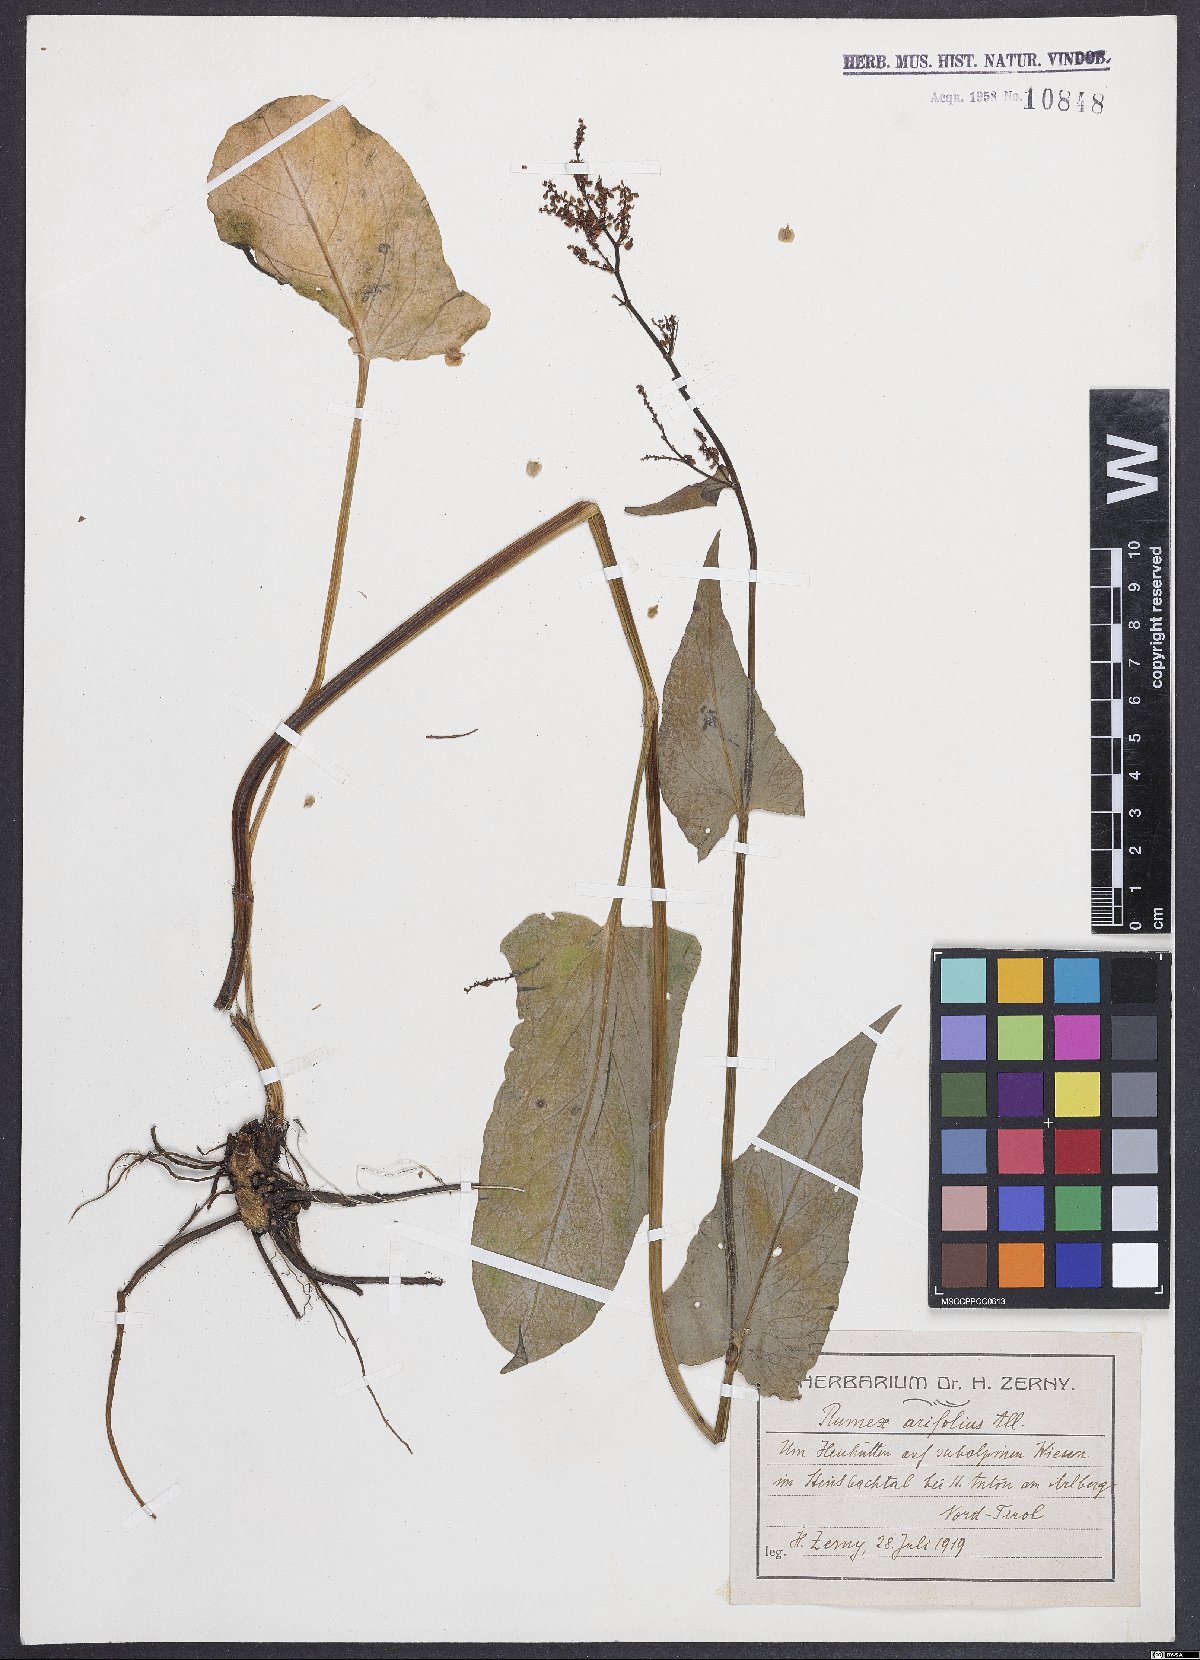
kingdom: Plantae
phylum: Tracheophyta
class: Magnoliopsida
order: Caryophyllales
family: Polygonaceae
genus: Rumex
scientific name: Rumex arifolius
